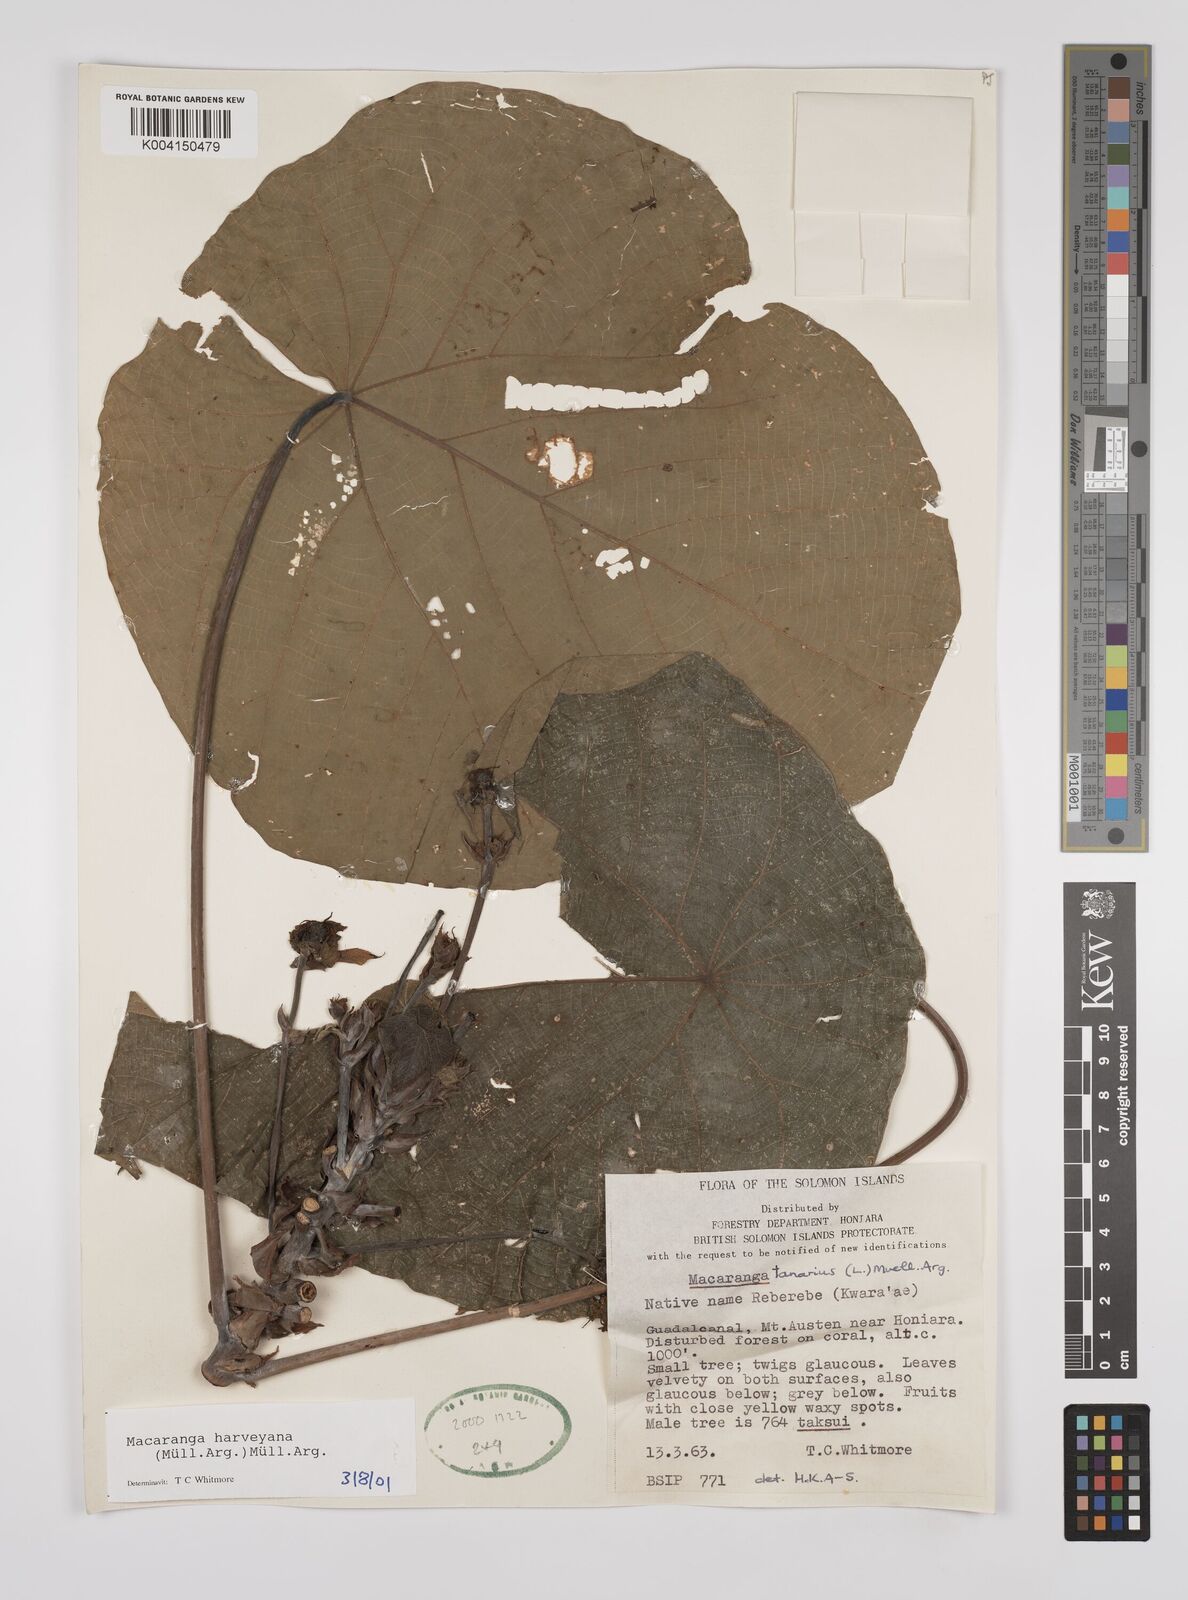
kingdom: Plantae
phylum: Tracheophyta
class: Magnoliopsida
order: Malpighiales
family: Euphorbiaceae
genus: Macaranga
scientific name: Macaranga harveyana
